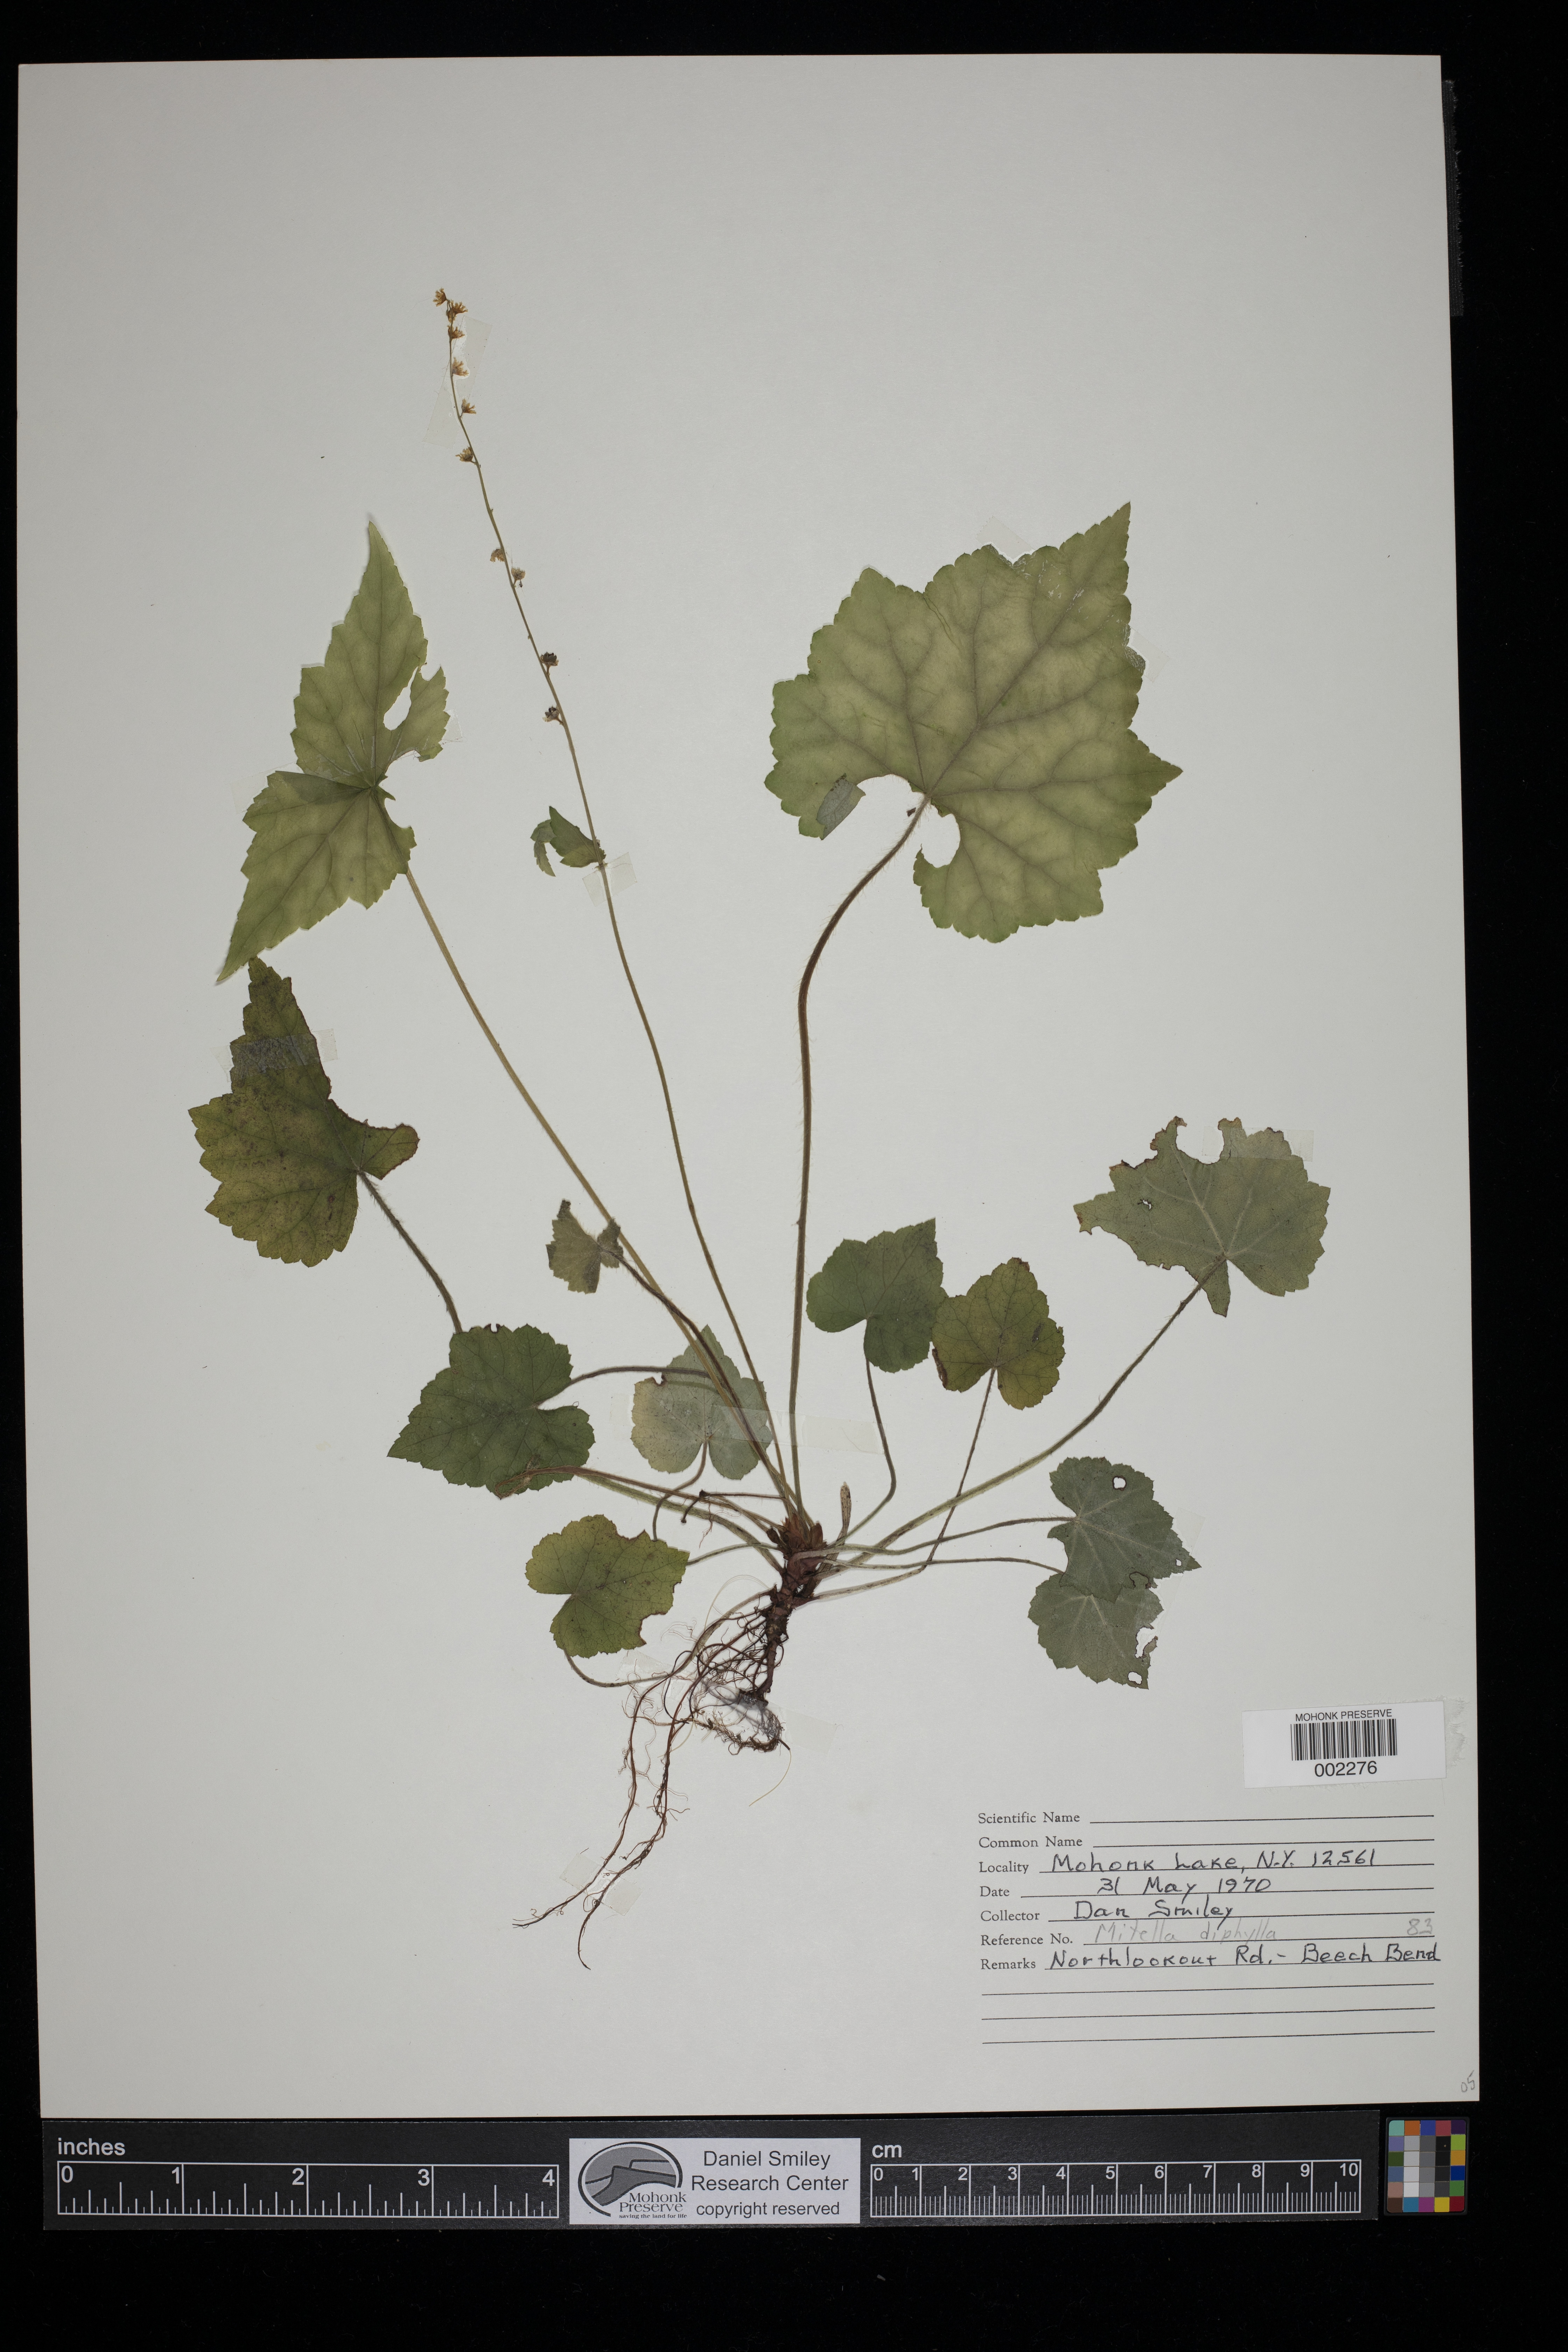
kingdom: Plantae
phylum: Tracheophyta
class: Magnoliopsida
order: Saxifragales
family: Saxifragaceae
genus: Mitella
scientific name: Mitella diphylla
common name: Coolwort
